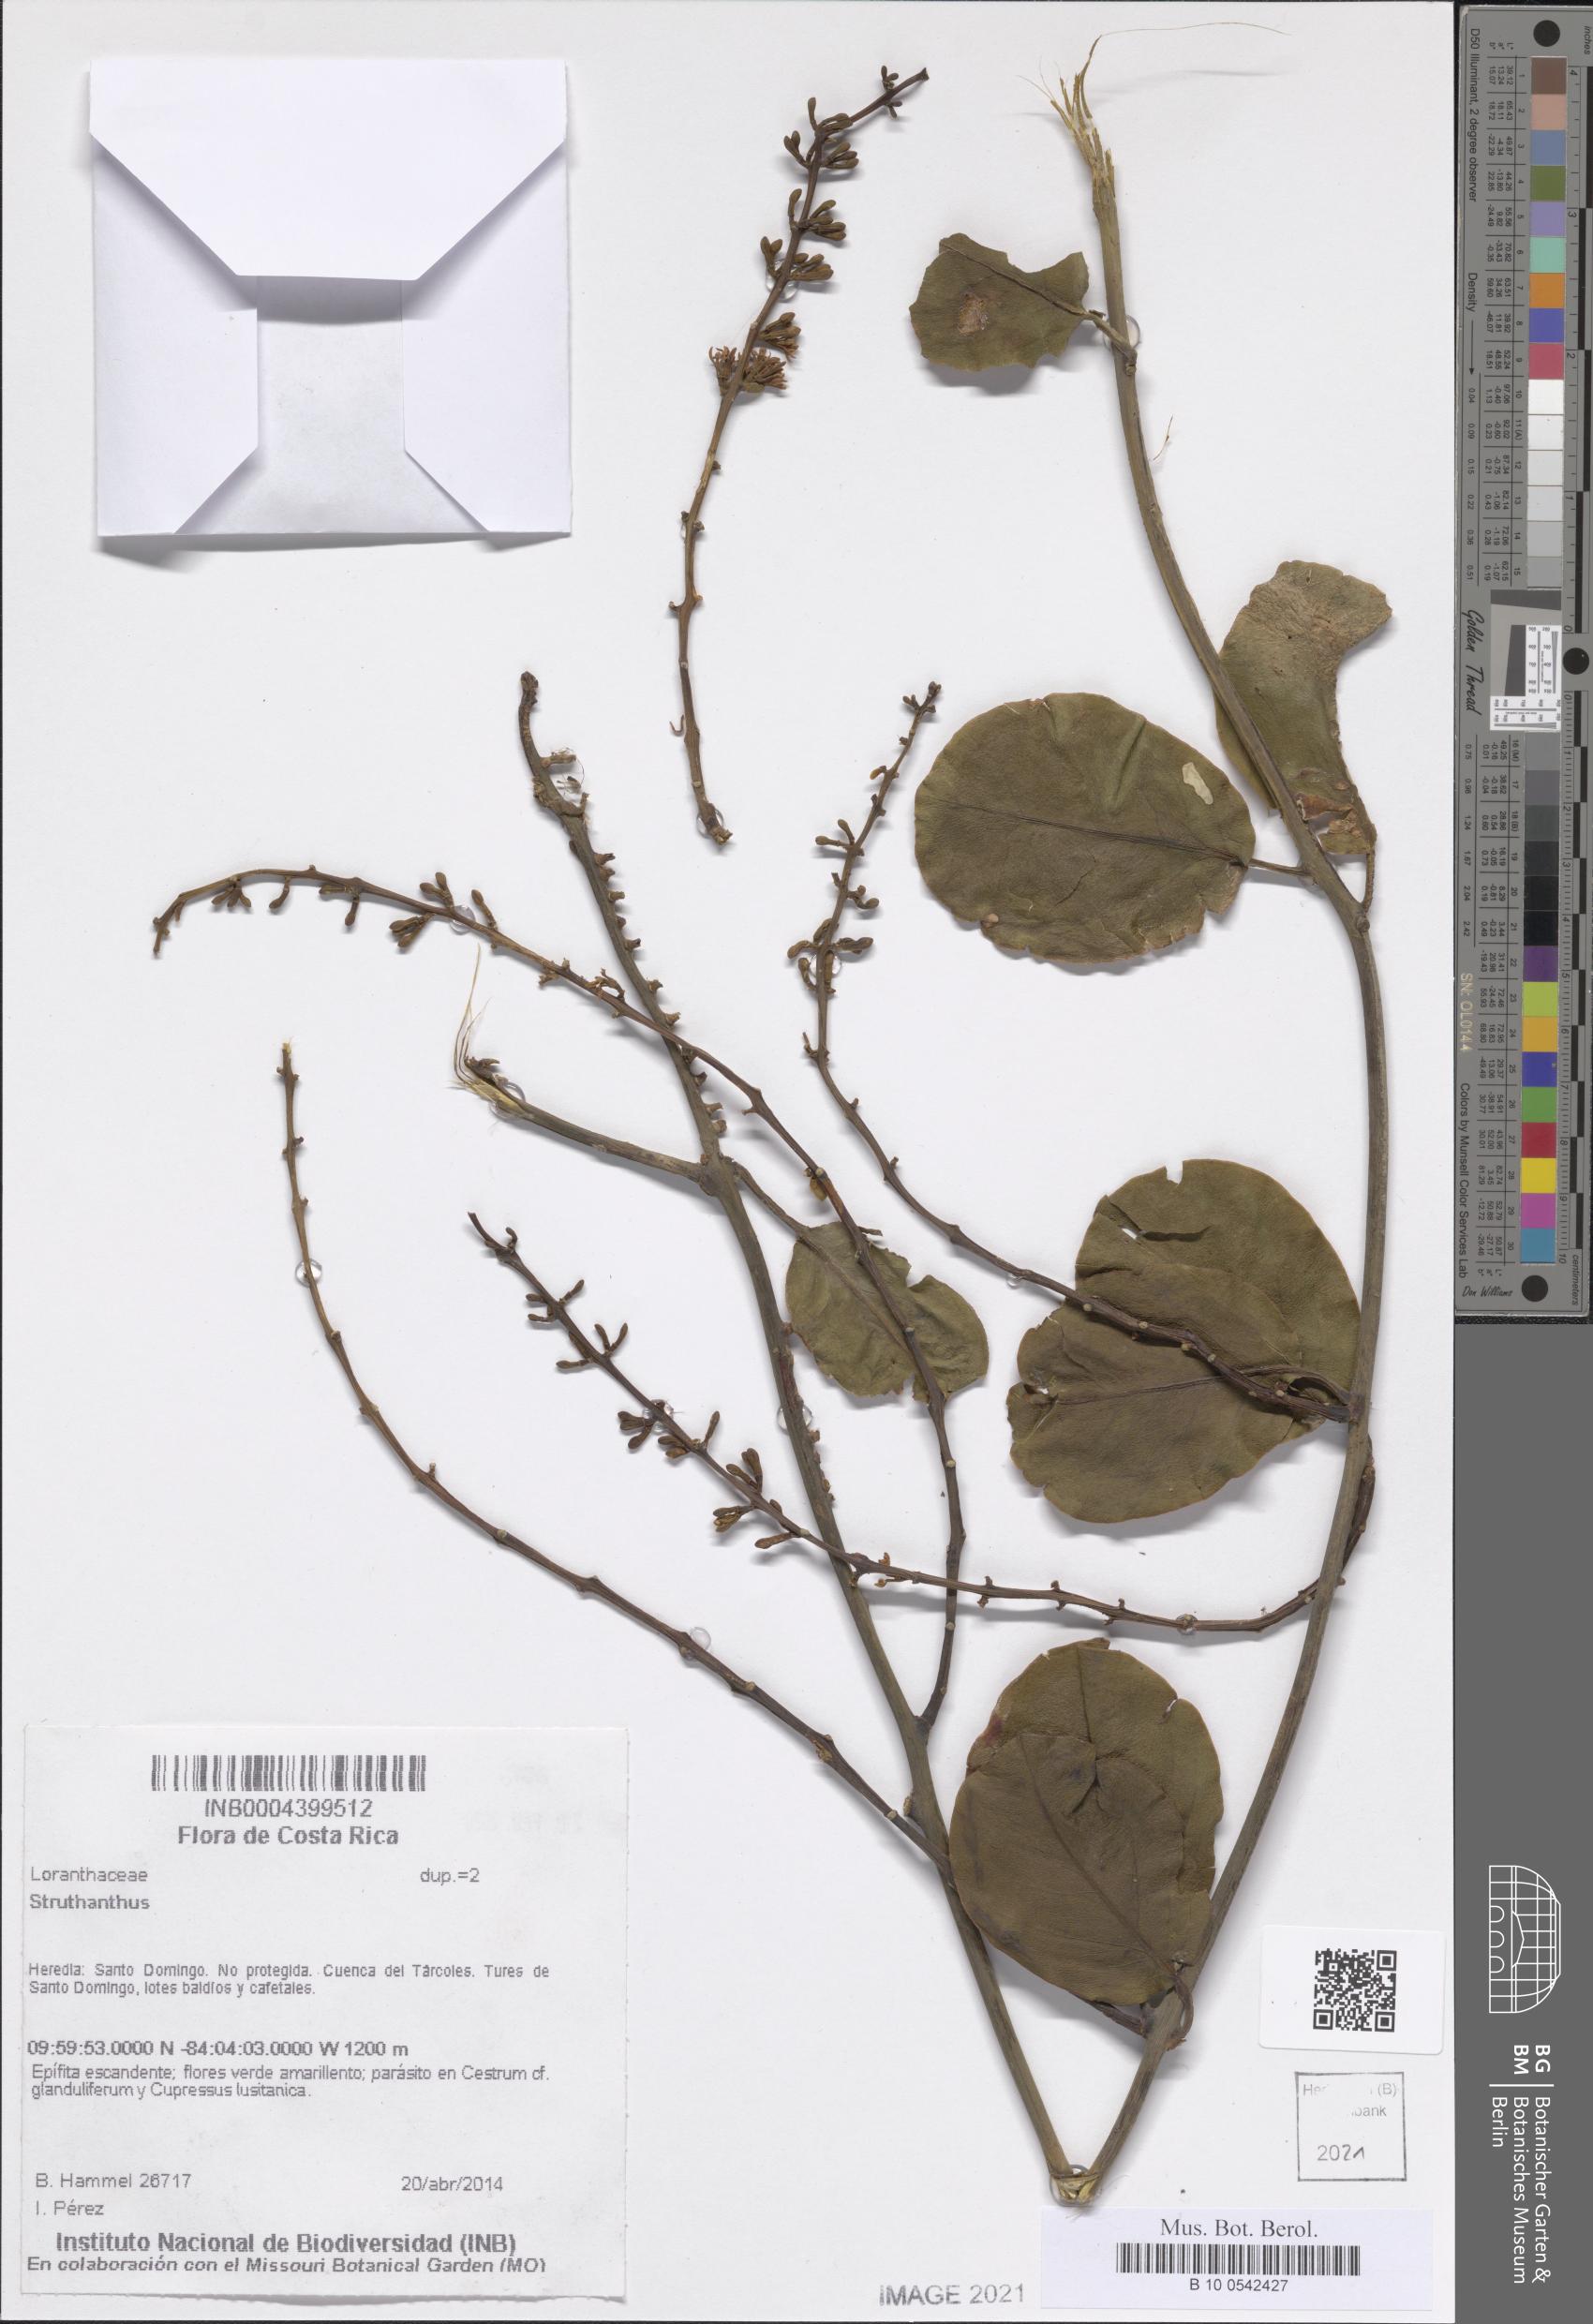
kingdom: Plantae
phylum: Tracheophyta
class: Magnoliopsida
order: Santalales
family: Loranthaceae
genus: Struthanthus
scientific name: Struthanthus
